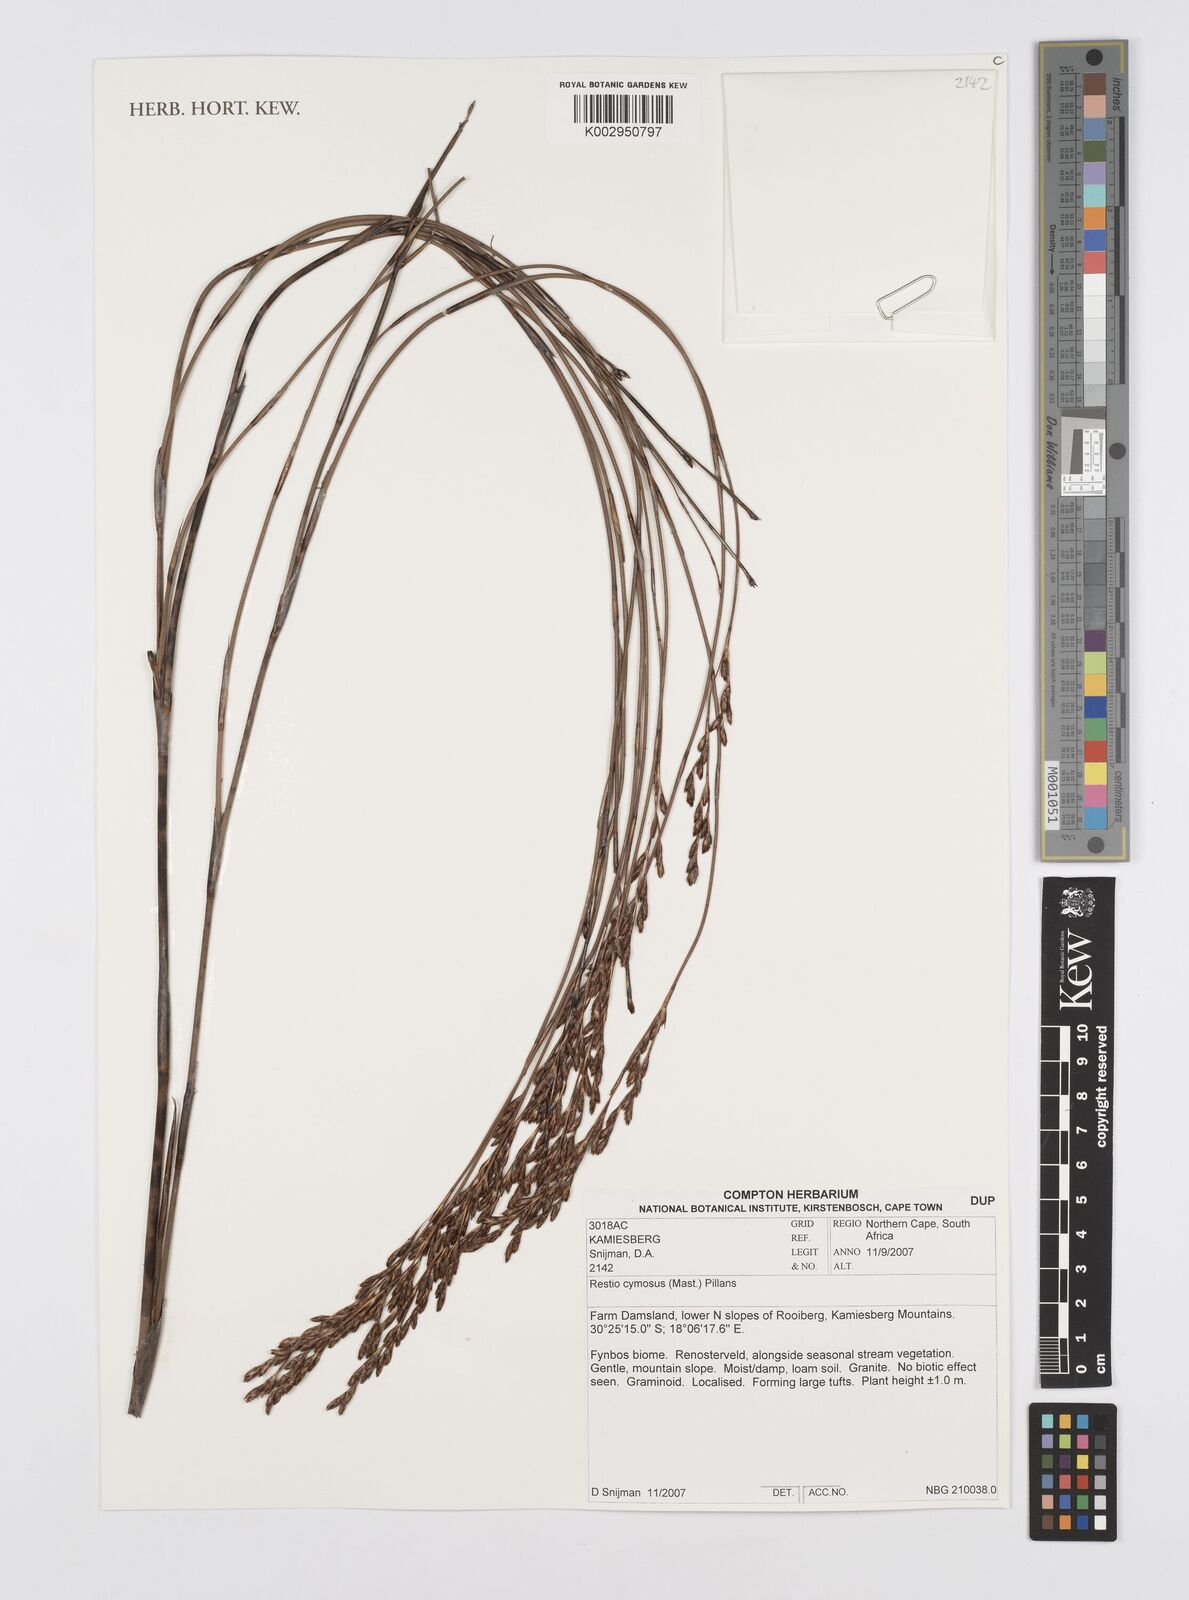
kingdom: Plantae
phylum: Tracheophyta
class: Liliopsida
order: Poales
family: Restionaceae
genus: Restio
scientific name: Restio cymosus
